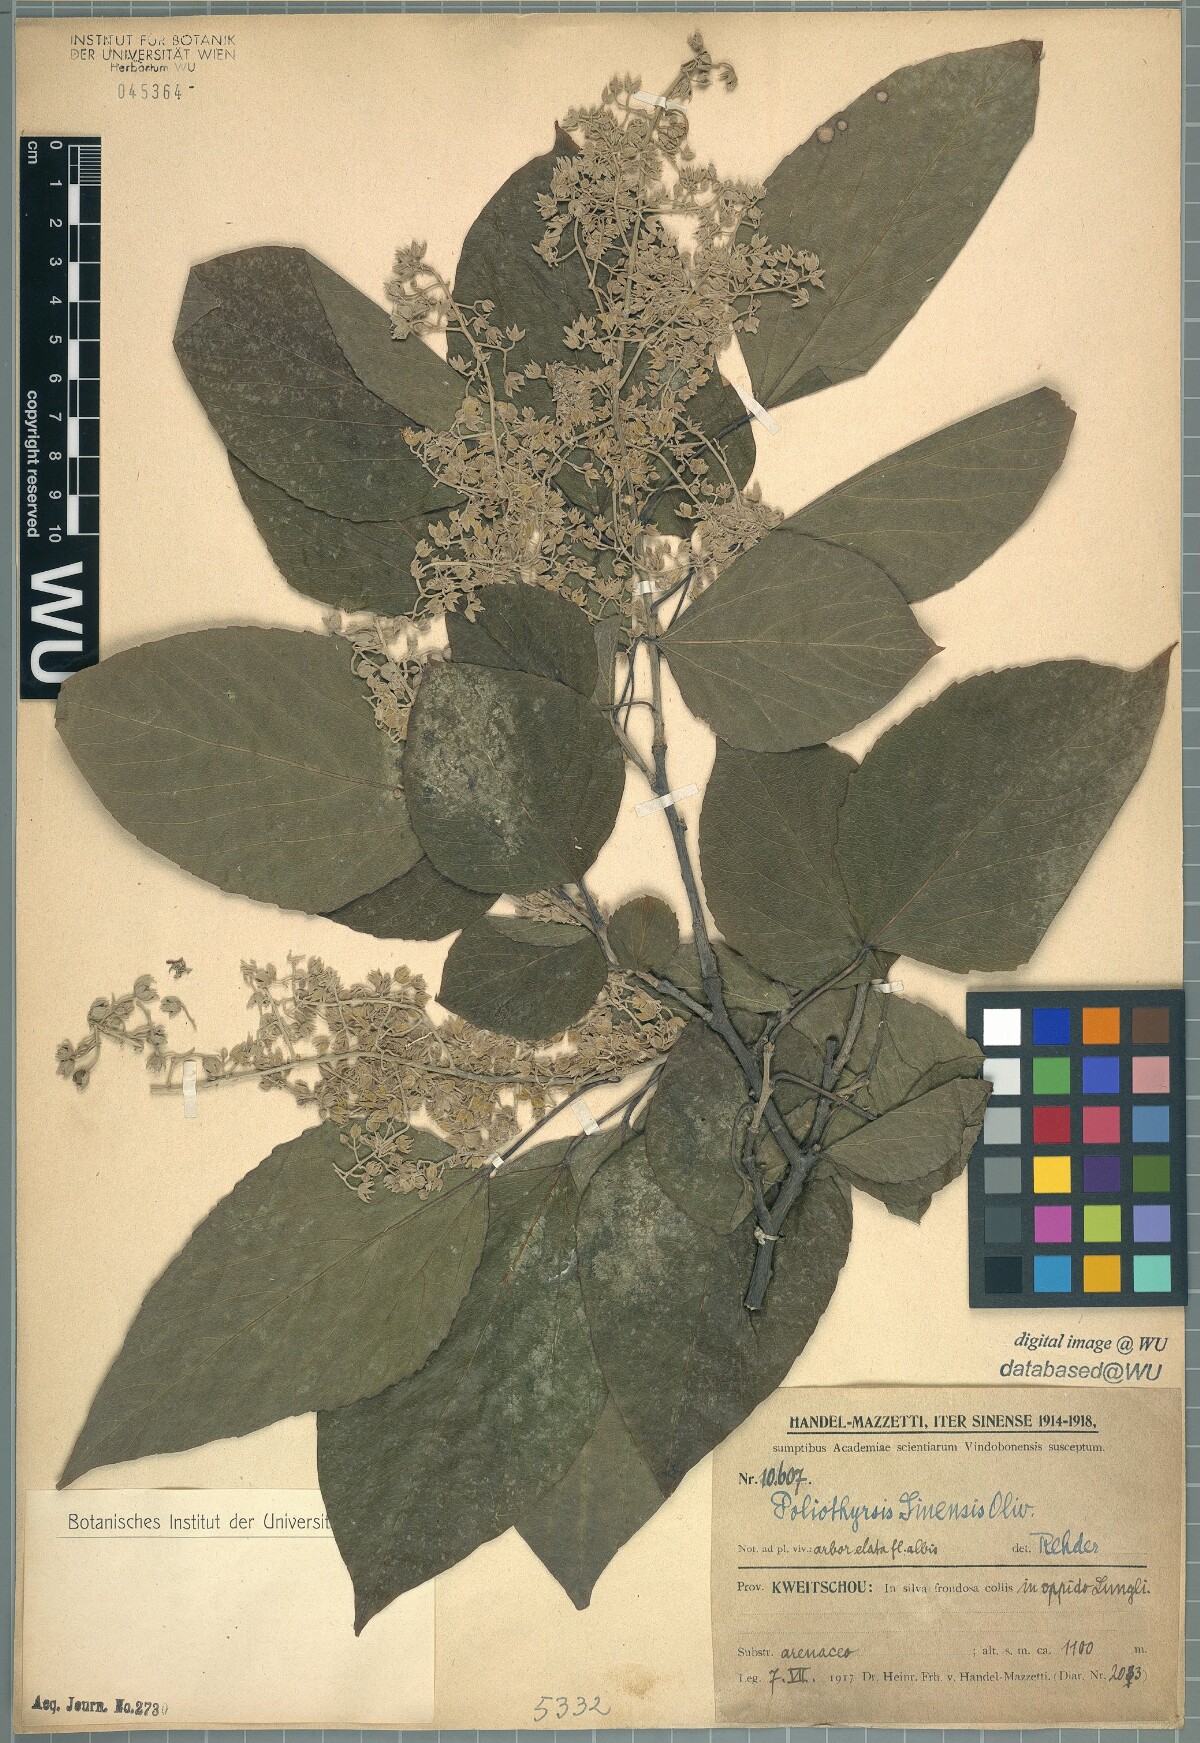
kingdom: Plantae
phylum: Tracheophyta
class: Magnoliopsida
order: Malpighiales
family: Salicaceae
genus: Poliothyrsis
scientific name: Poliothyrsis sinensis
